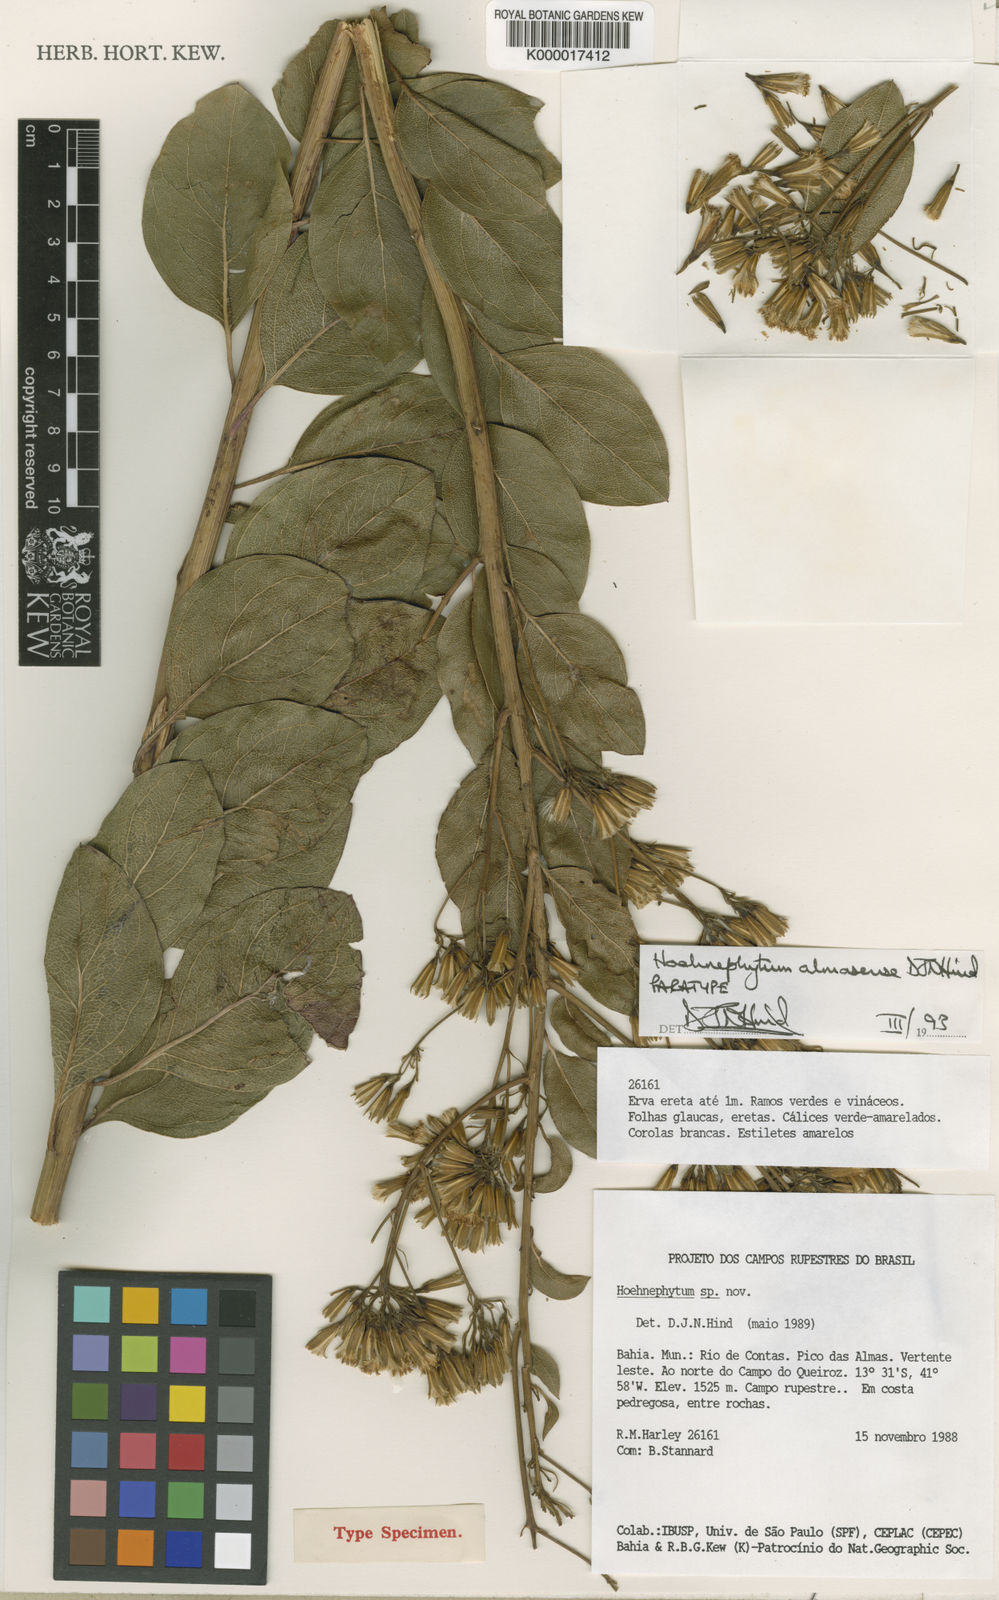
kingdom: Plantae
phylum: Tracheophyta
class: Magnoliopsida
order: Asterales
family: Asteraceae
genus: Hoehnephytum
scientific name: Hoehnephytum almasense
